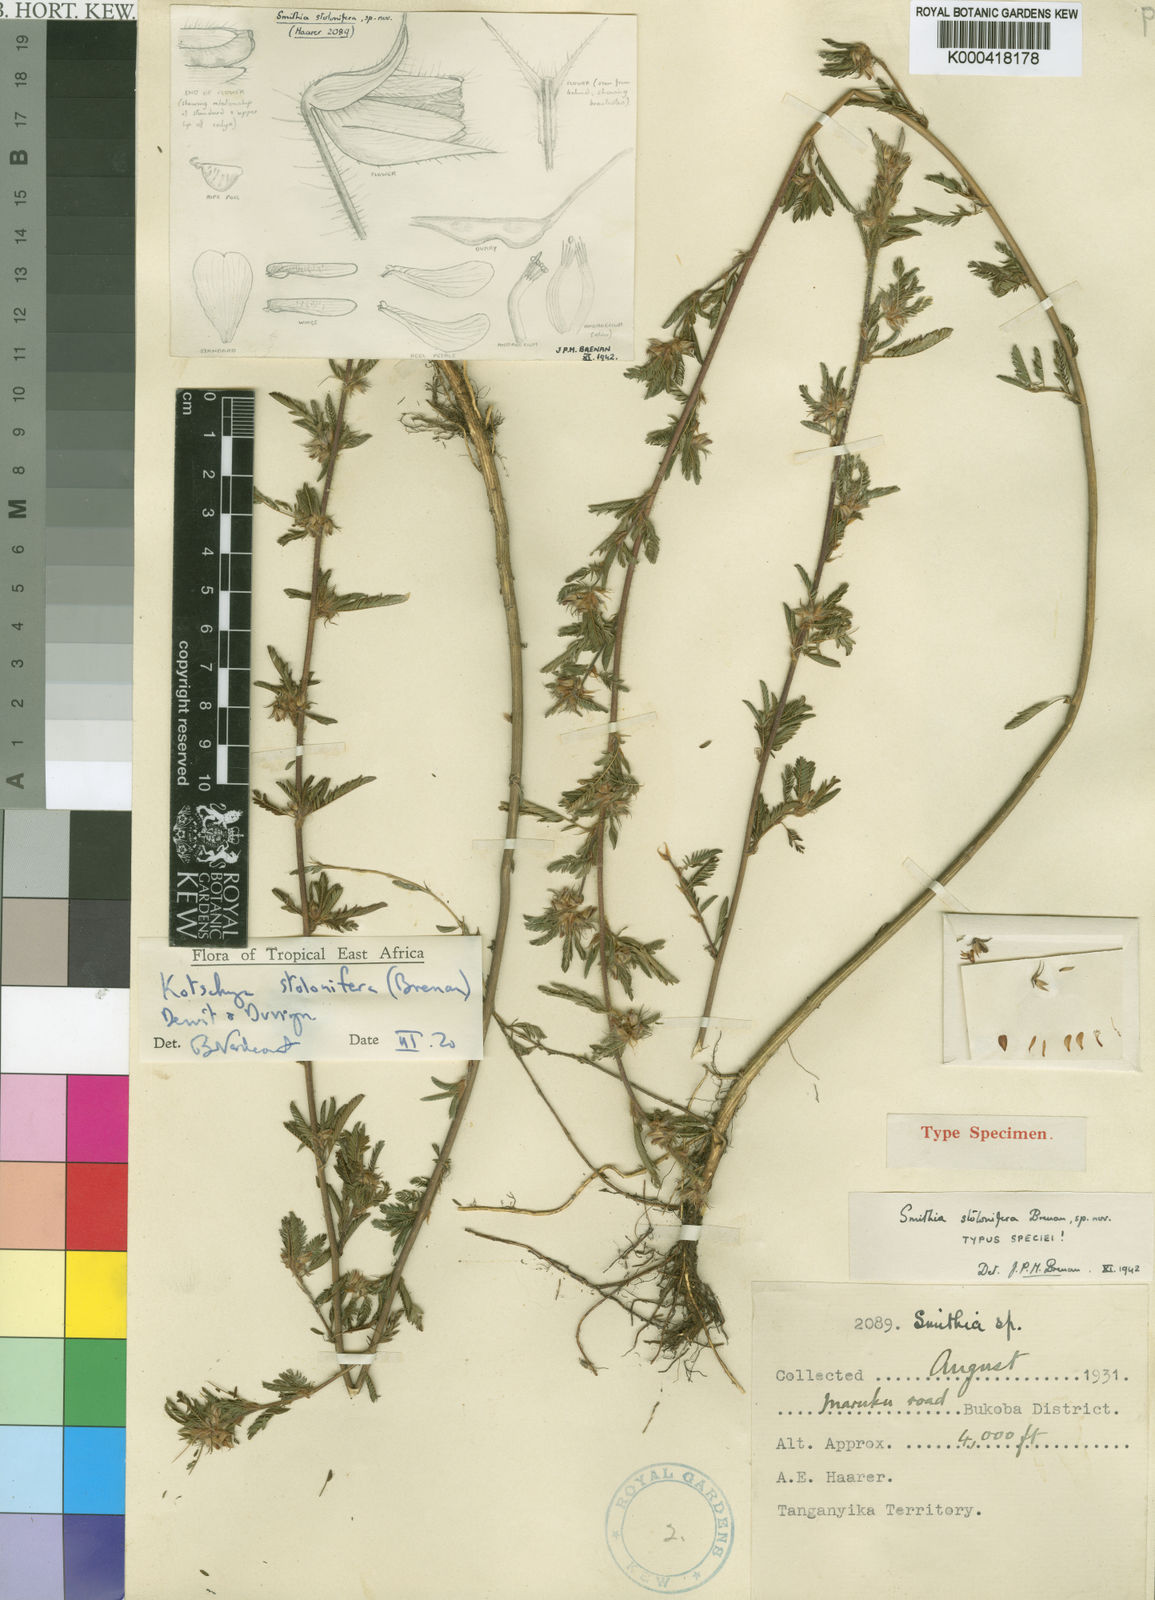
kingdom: Plantae
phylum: Tracheophyta
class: Magnoliopsida
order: Fabales
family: Fabaceae
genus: Kotschya
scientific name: Kotschya stolonifera
